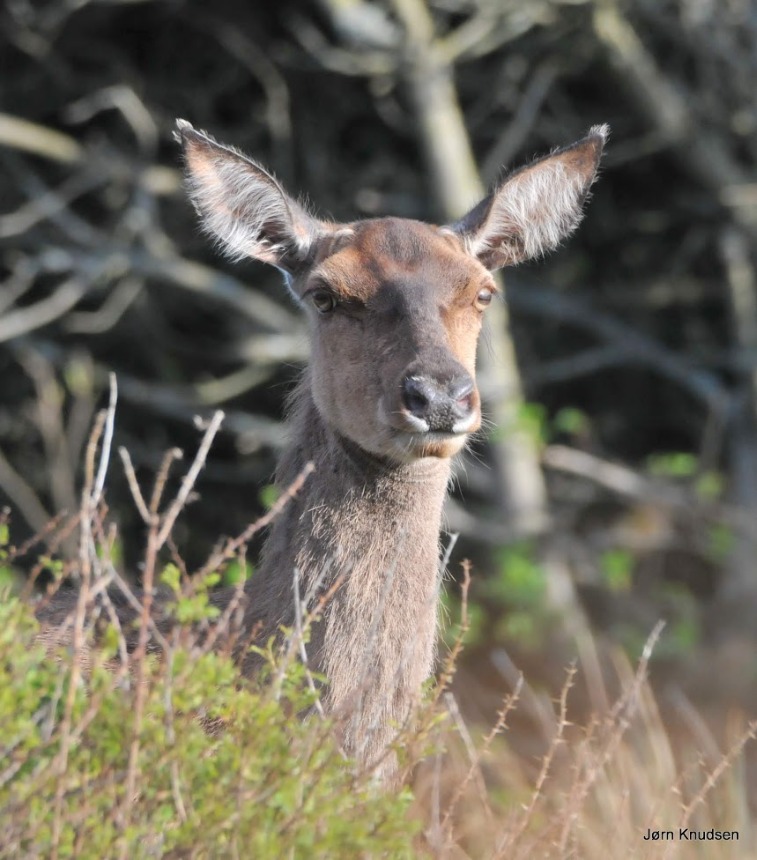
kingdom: Animalia
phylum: Chordata
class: Mammalia
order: Artiodactyla
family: Cervidae
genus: Cervus
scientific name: Cervus elaphus
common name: Krondyr
